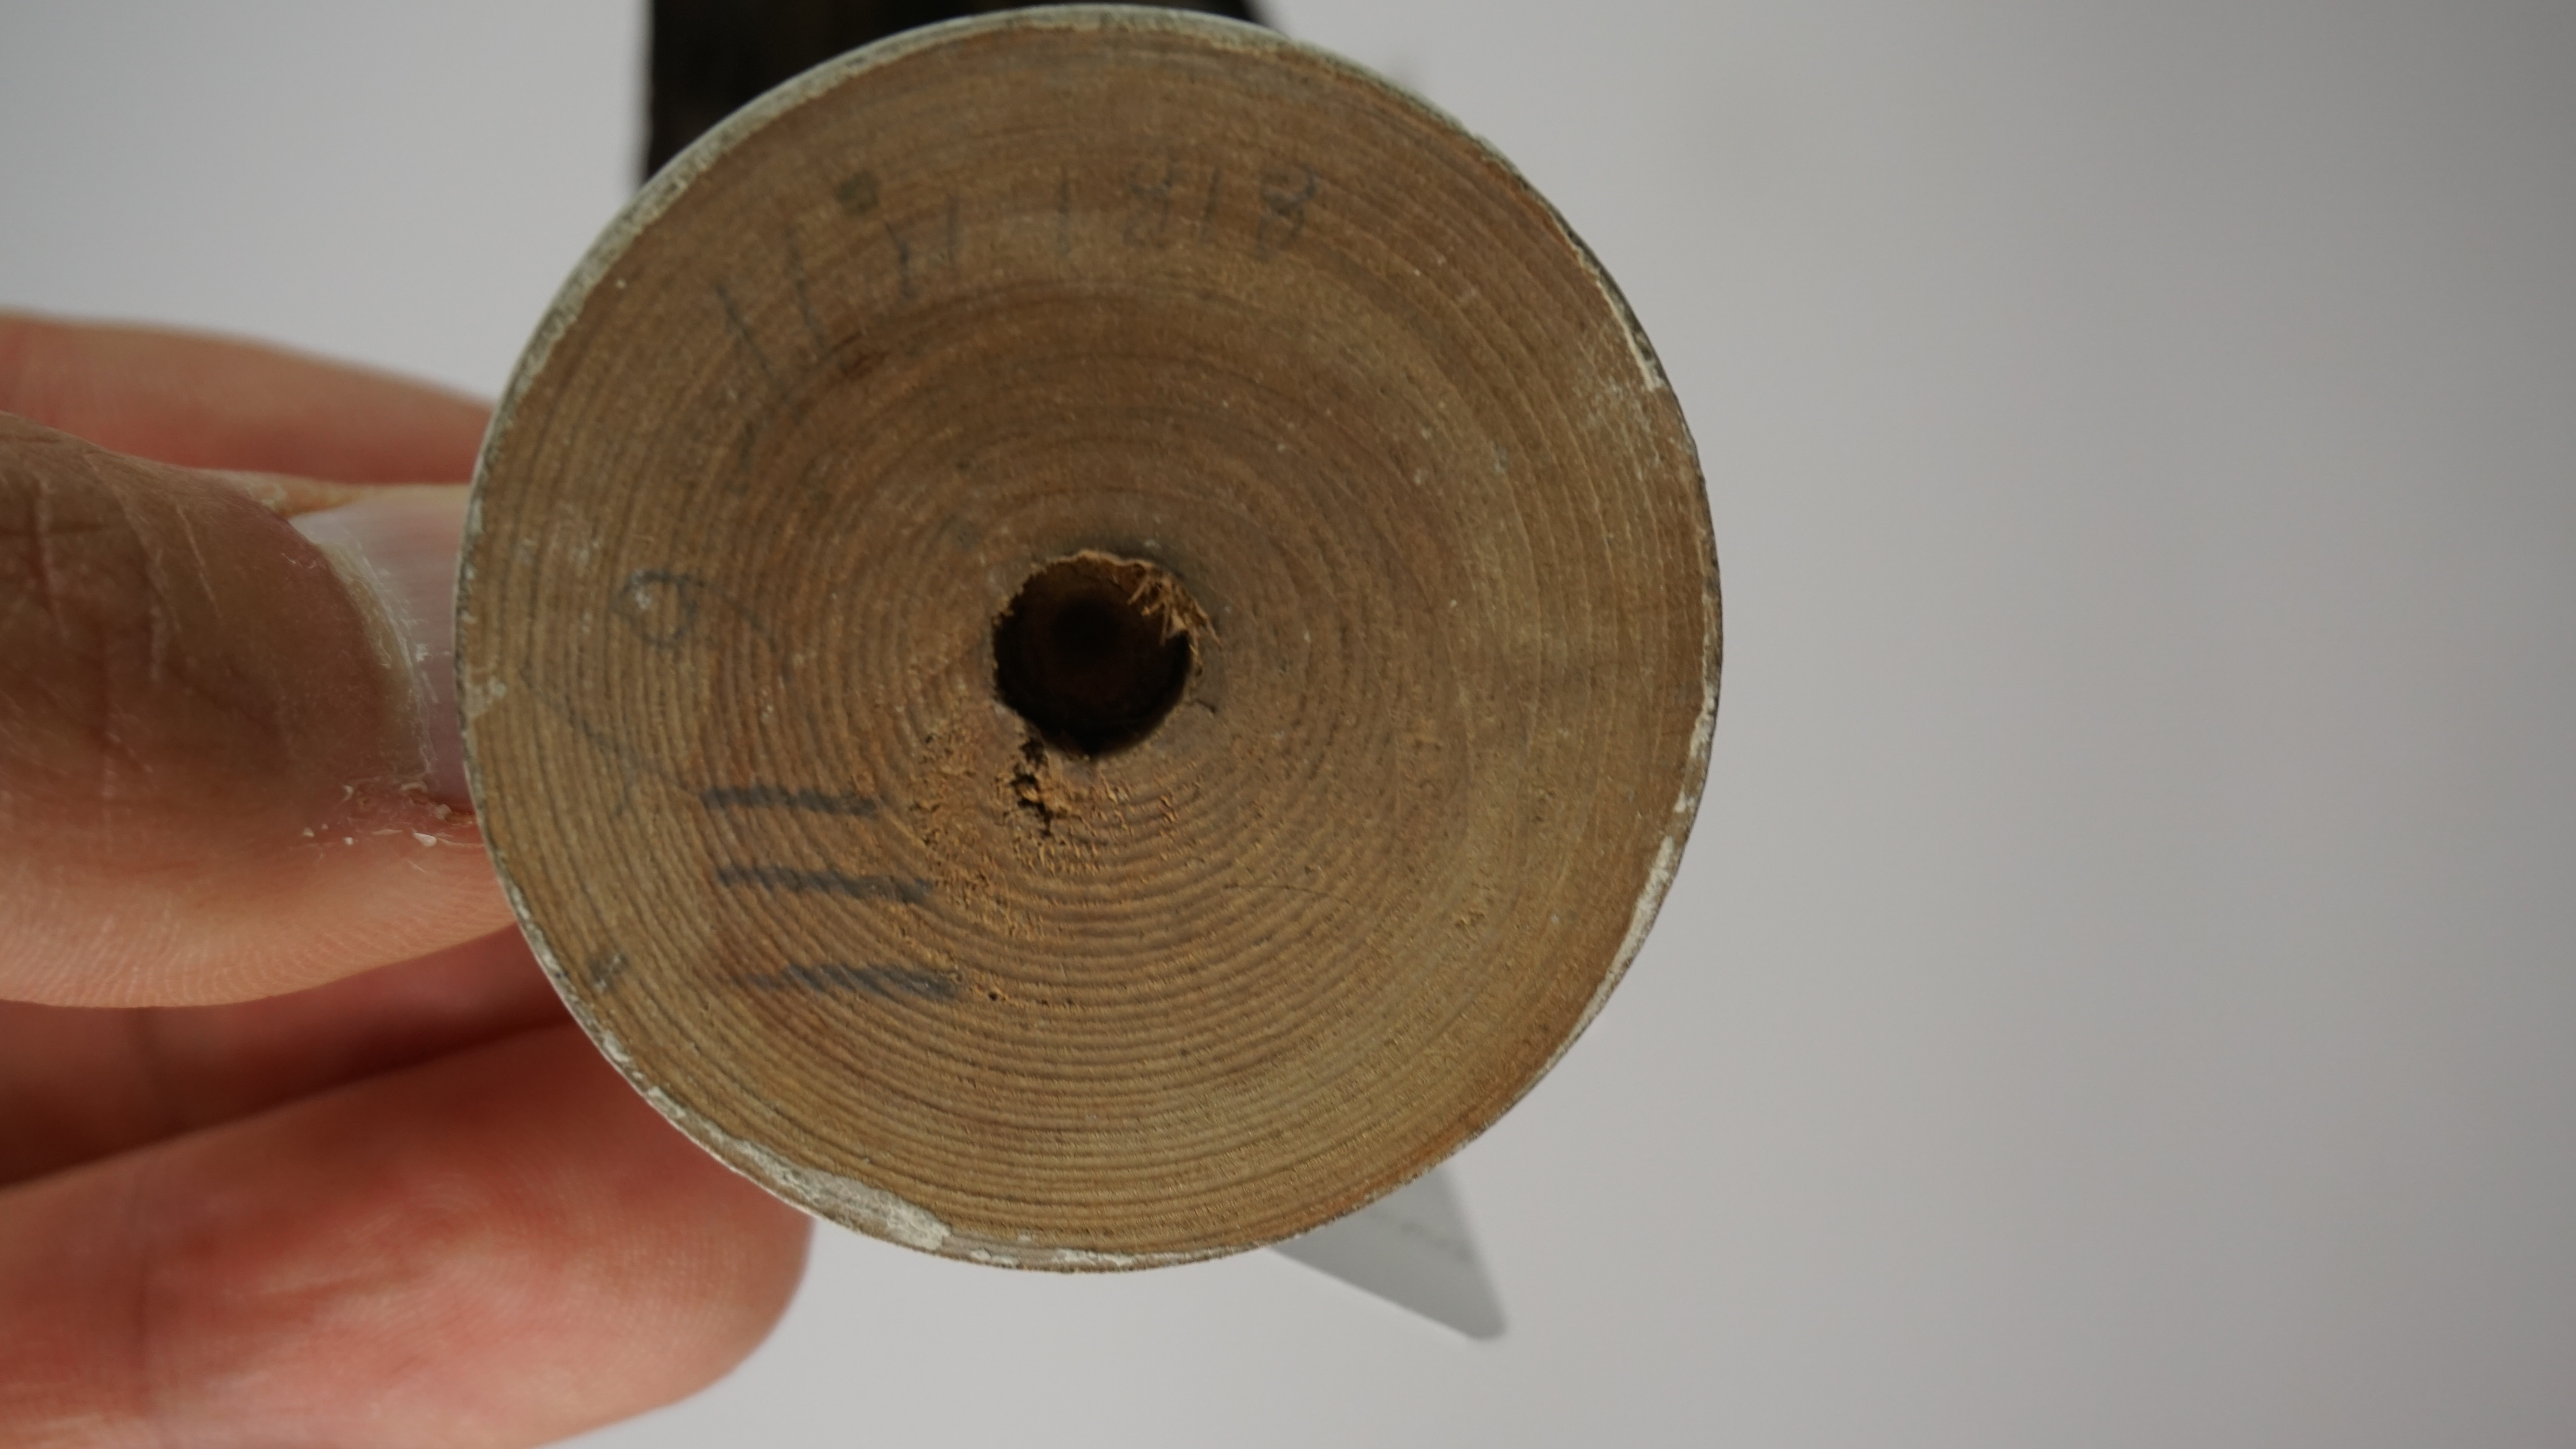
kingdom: Animalia
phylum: Chordata
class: Aves
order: Passeriformes
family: Vangidae
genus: Cyanolanius
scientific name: Cyanolanius madagascarinus
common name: Blue vanga
